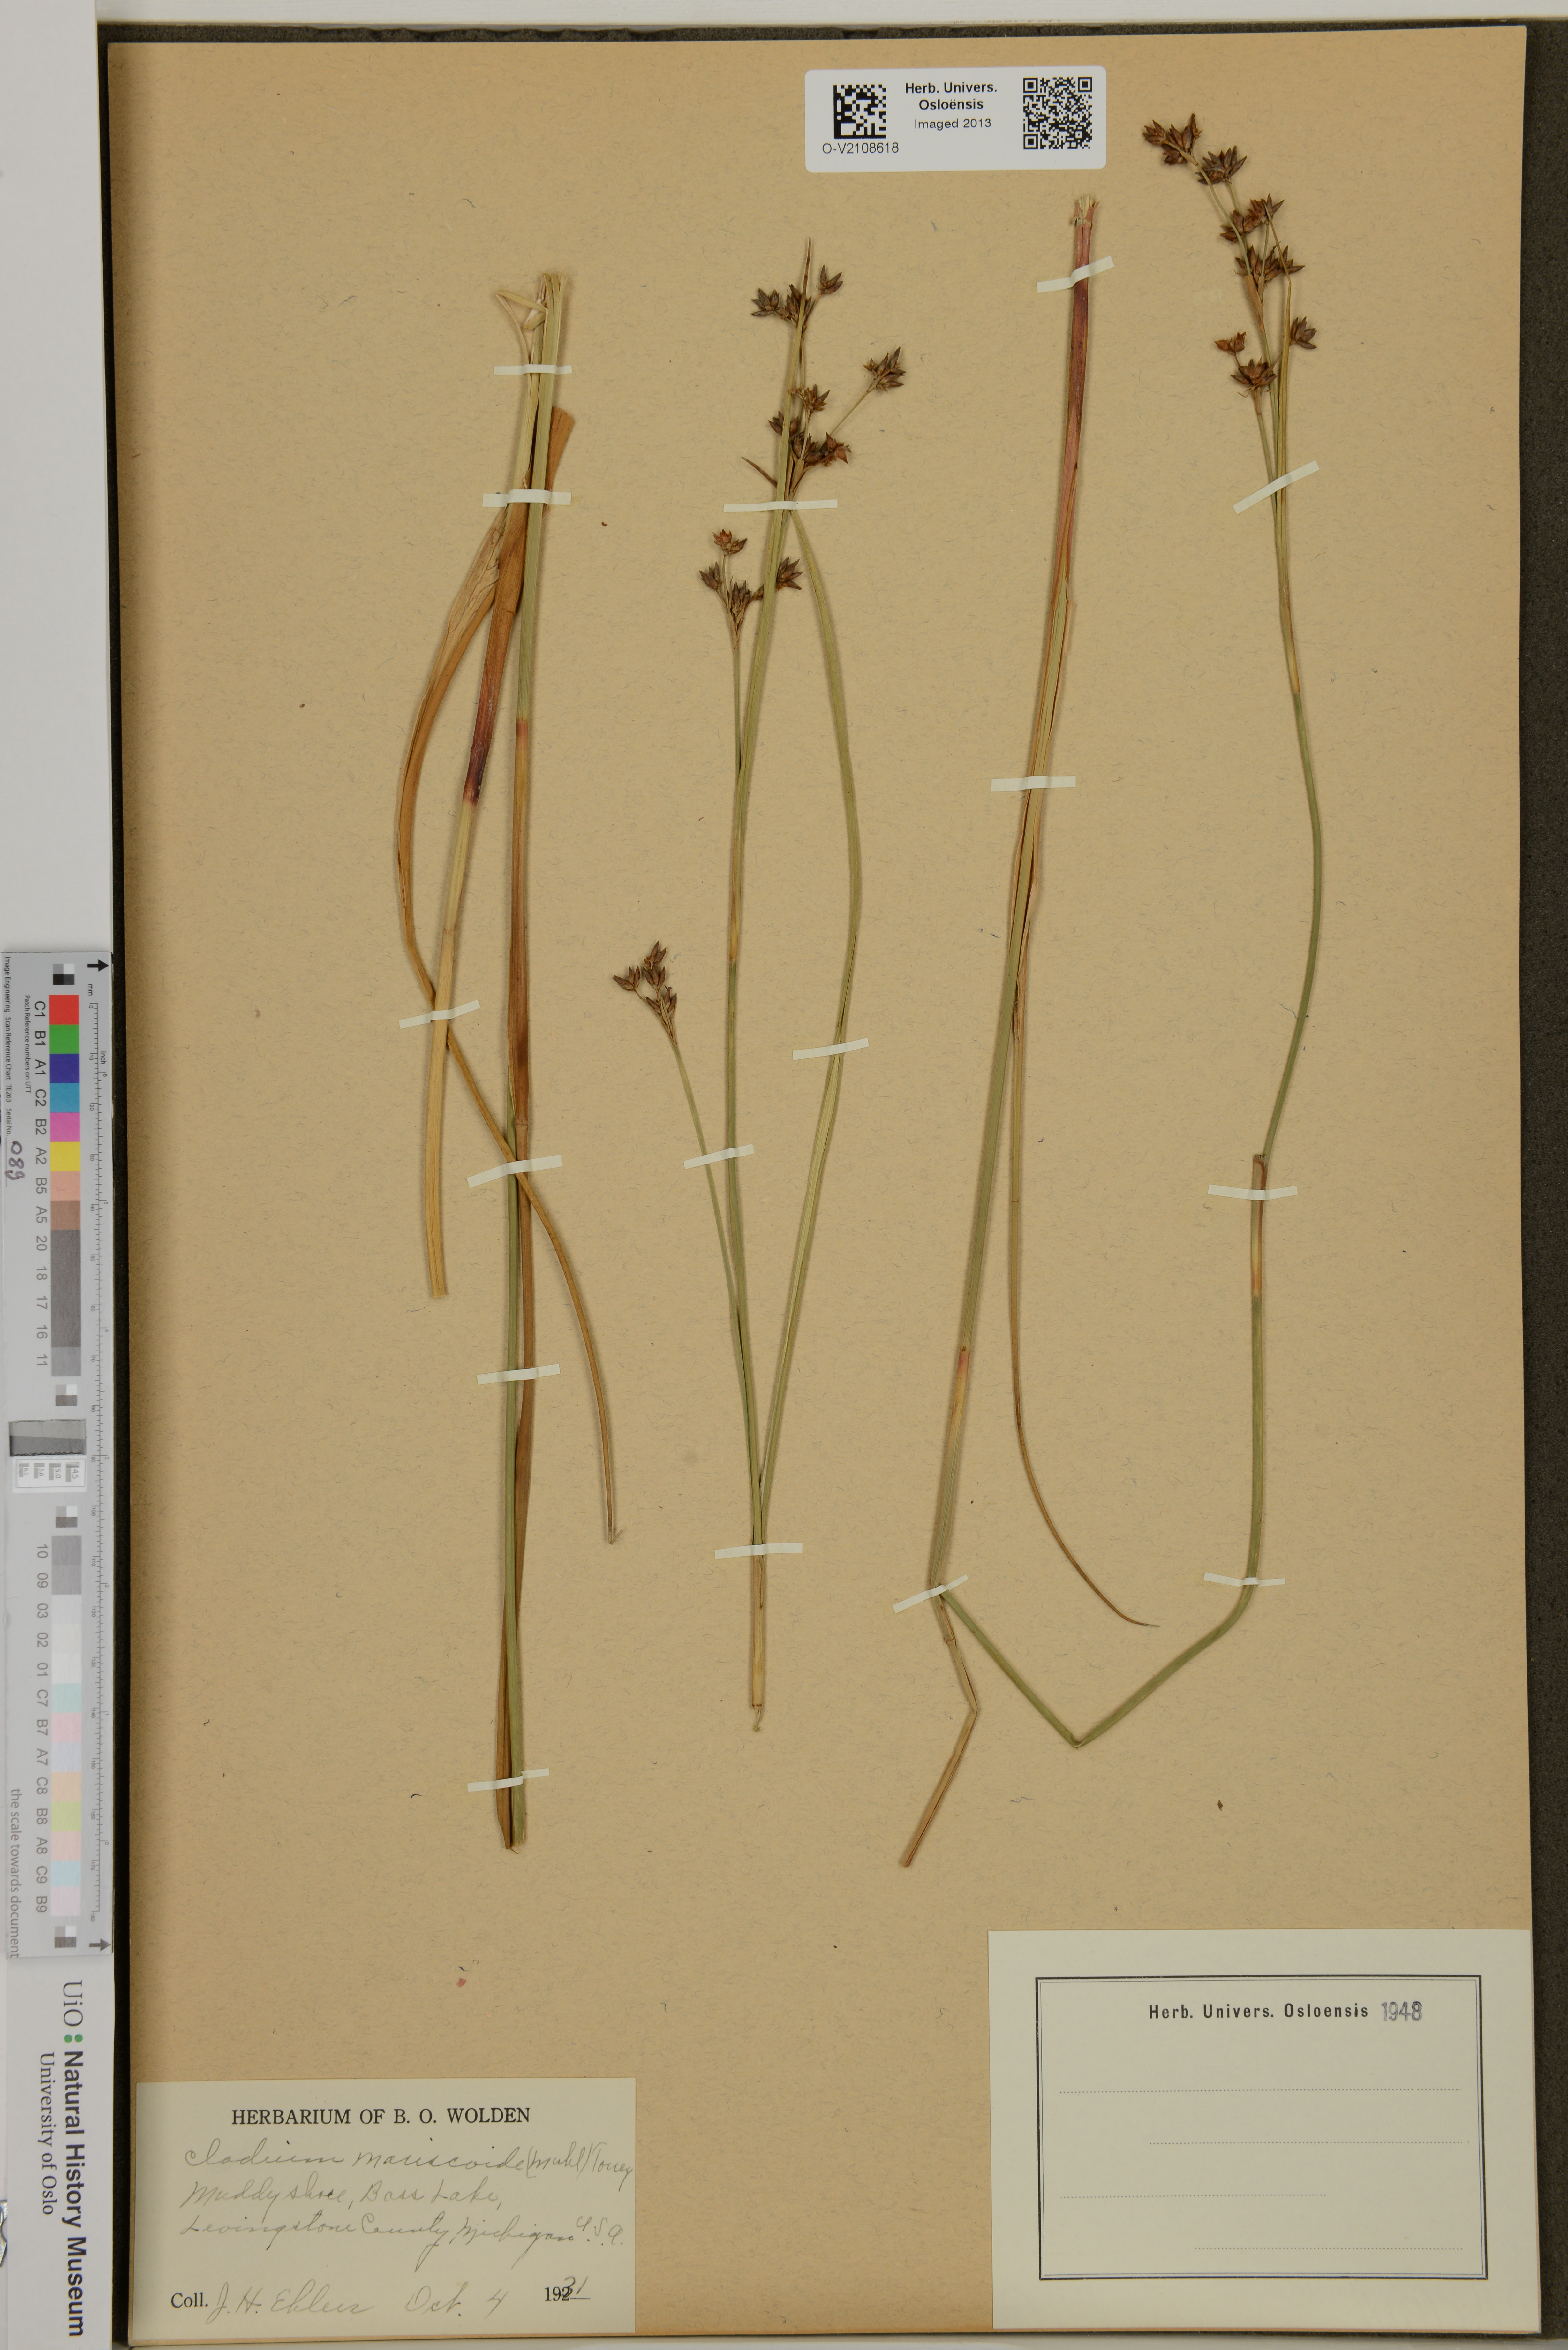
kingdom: Plantae
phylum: Tracheophyta
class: Liliopsida
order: Poales
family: Cyperaceae
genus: Cladium
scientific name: Cladium mariscoides
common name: Smooth sawgrass
